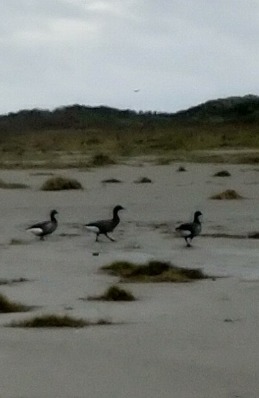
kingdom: Animalia
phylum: Chordata
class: Aves
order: Anseriformes
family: Anatidae
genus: Branta
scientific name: Branta bernicla
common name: Knortegås
